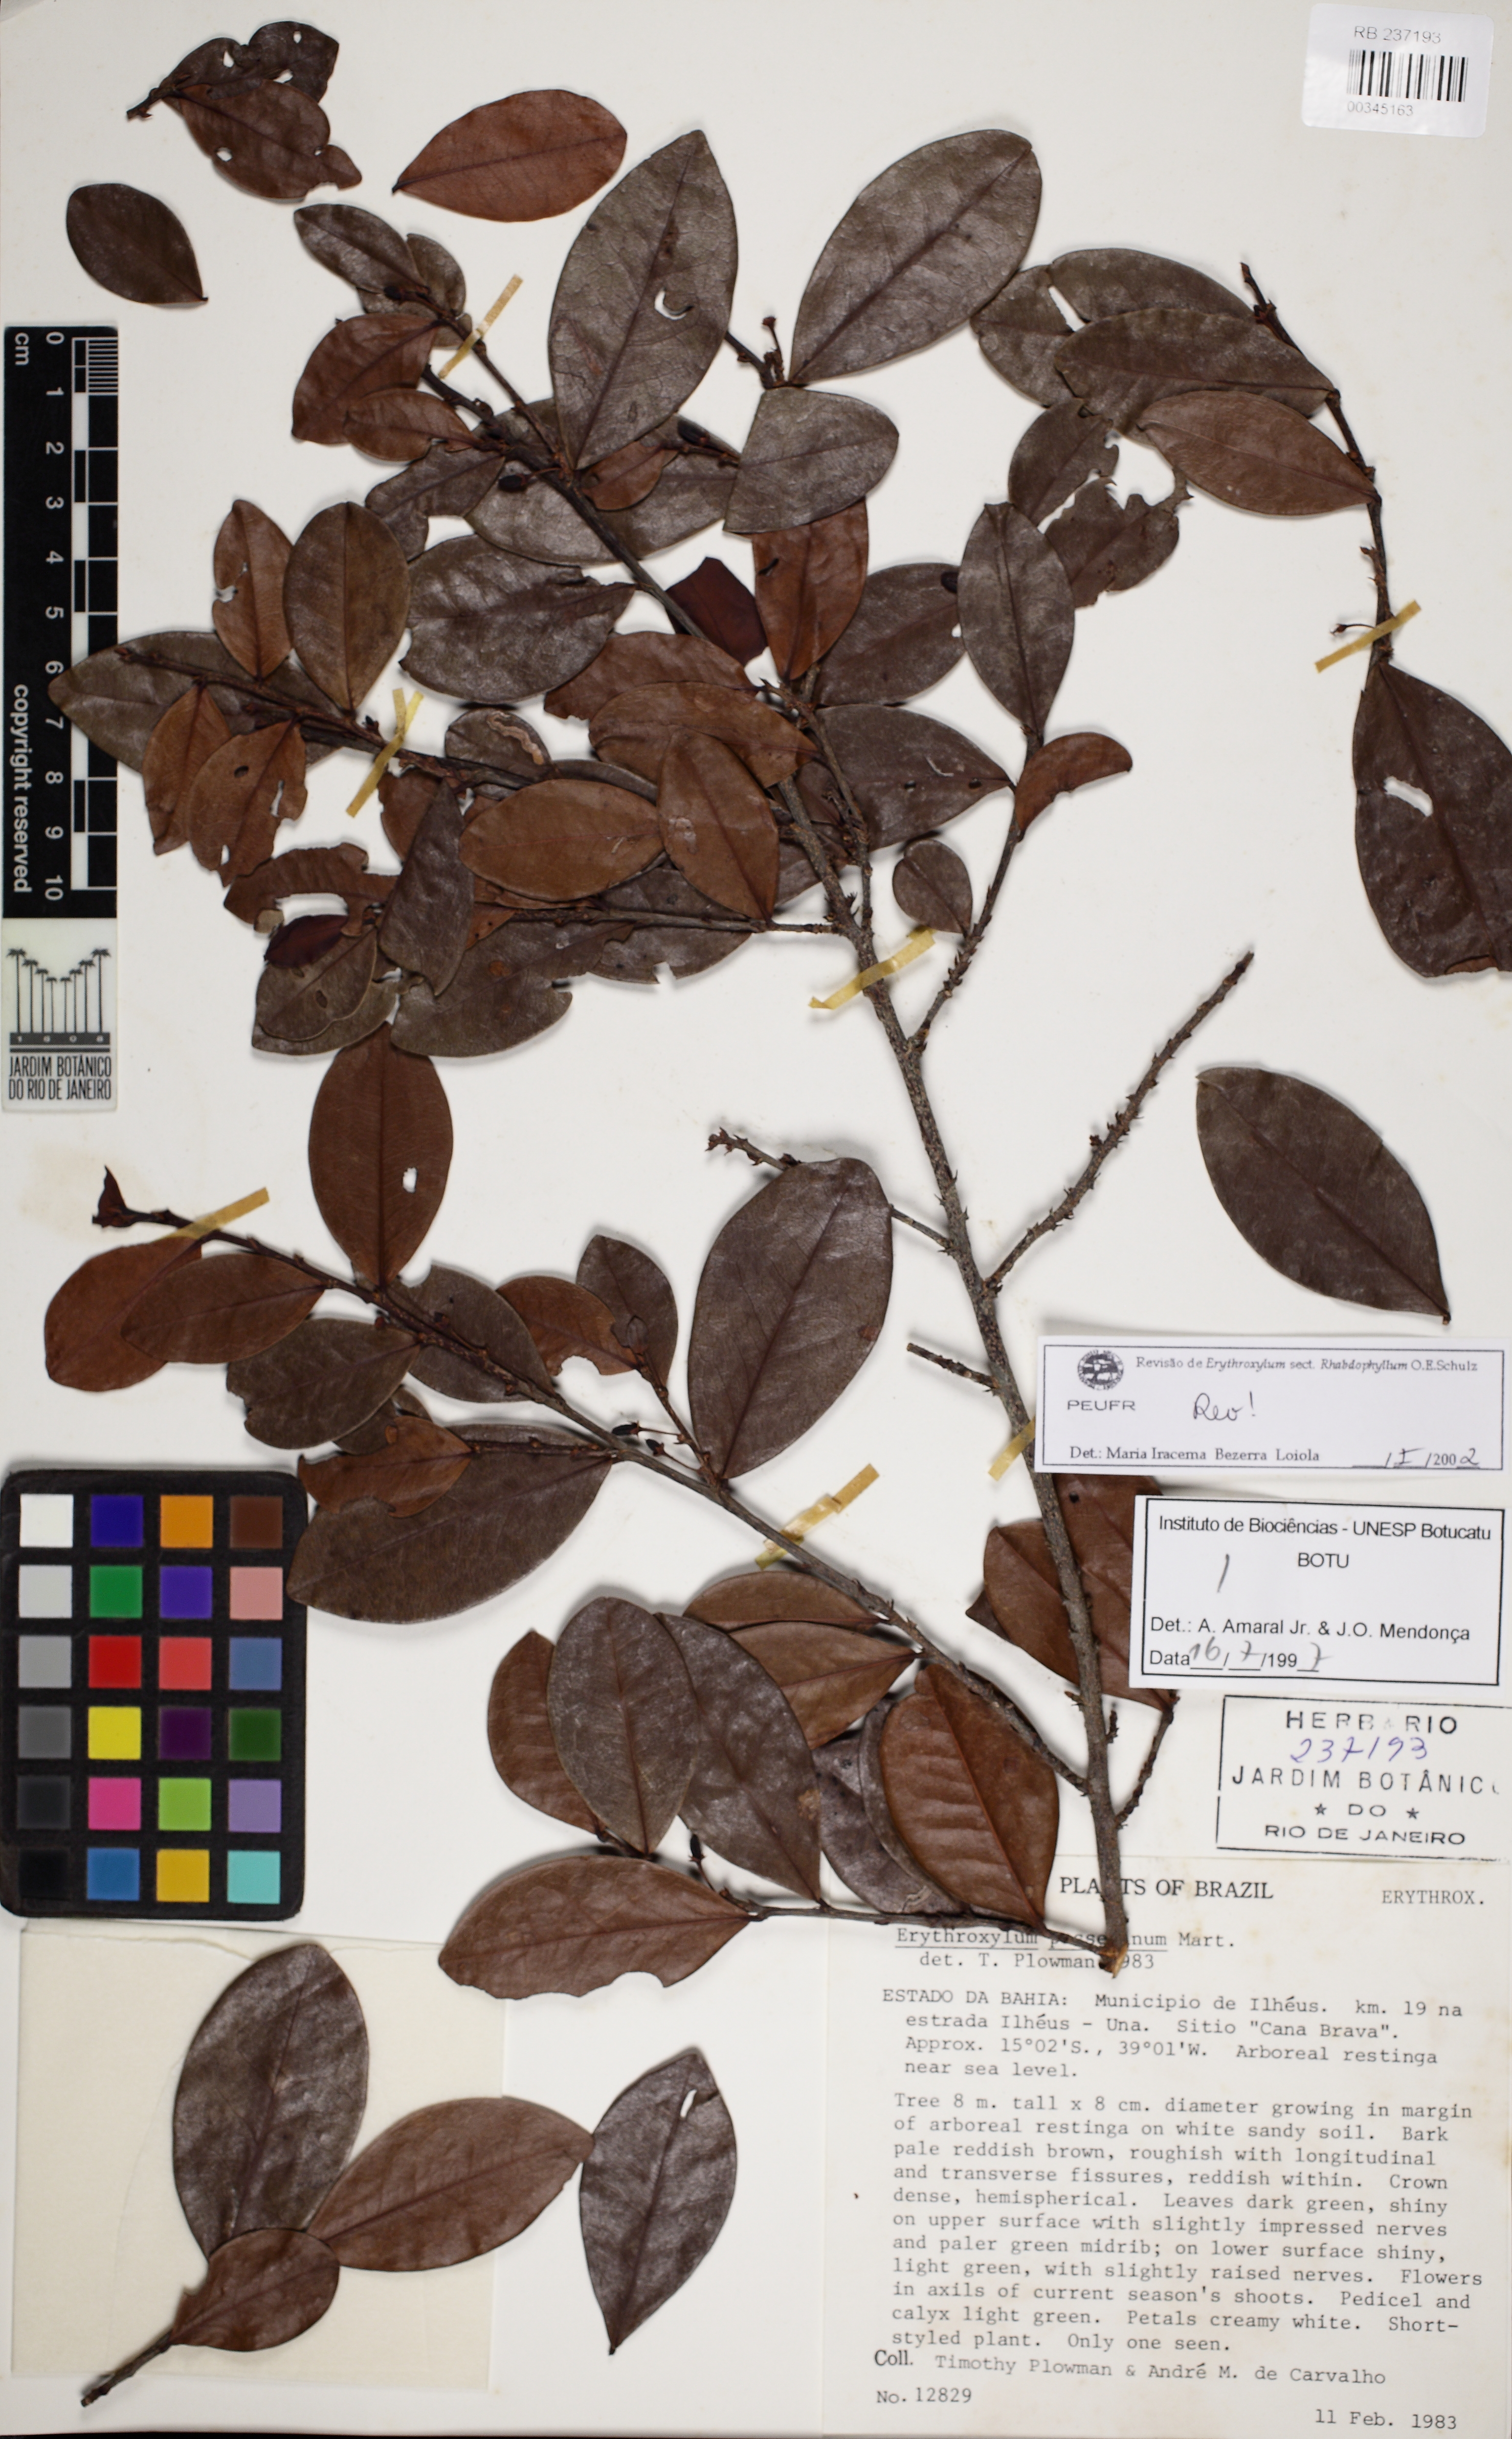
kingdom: Plantae
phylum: Tracheophyta
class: Magnoliopsida
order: Malpighiales
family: Erythroxylaceae
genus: Erythroxylum
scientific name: Erythroxylum passerinum
